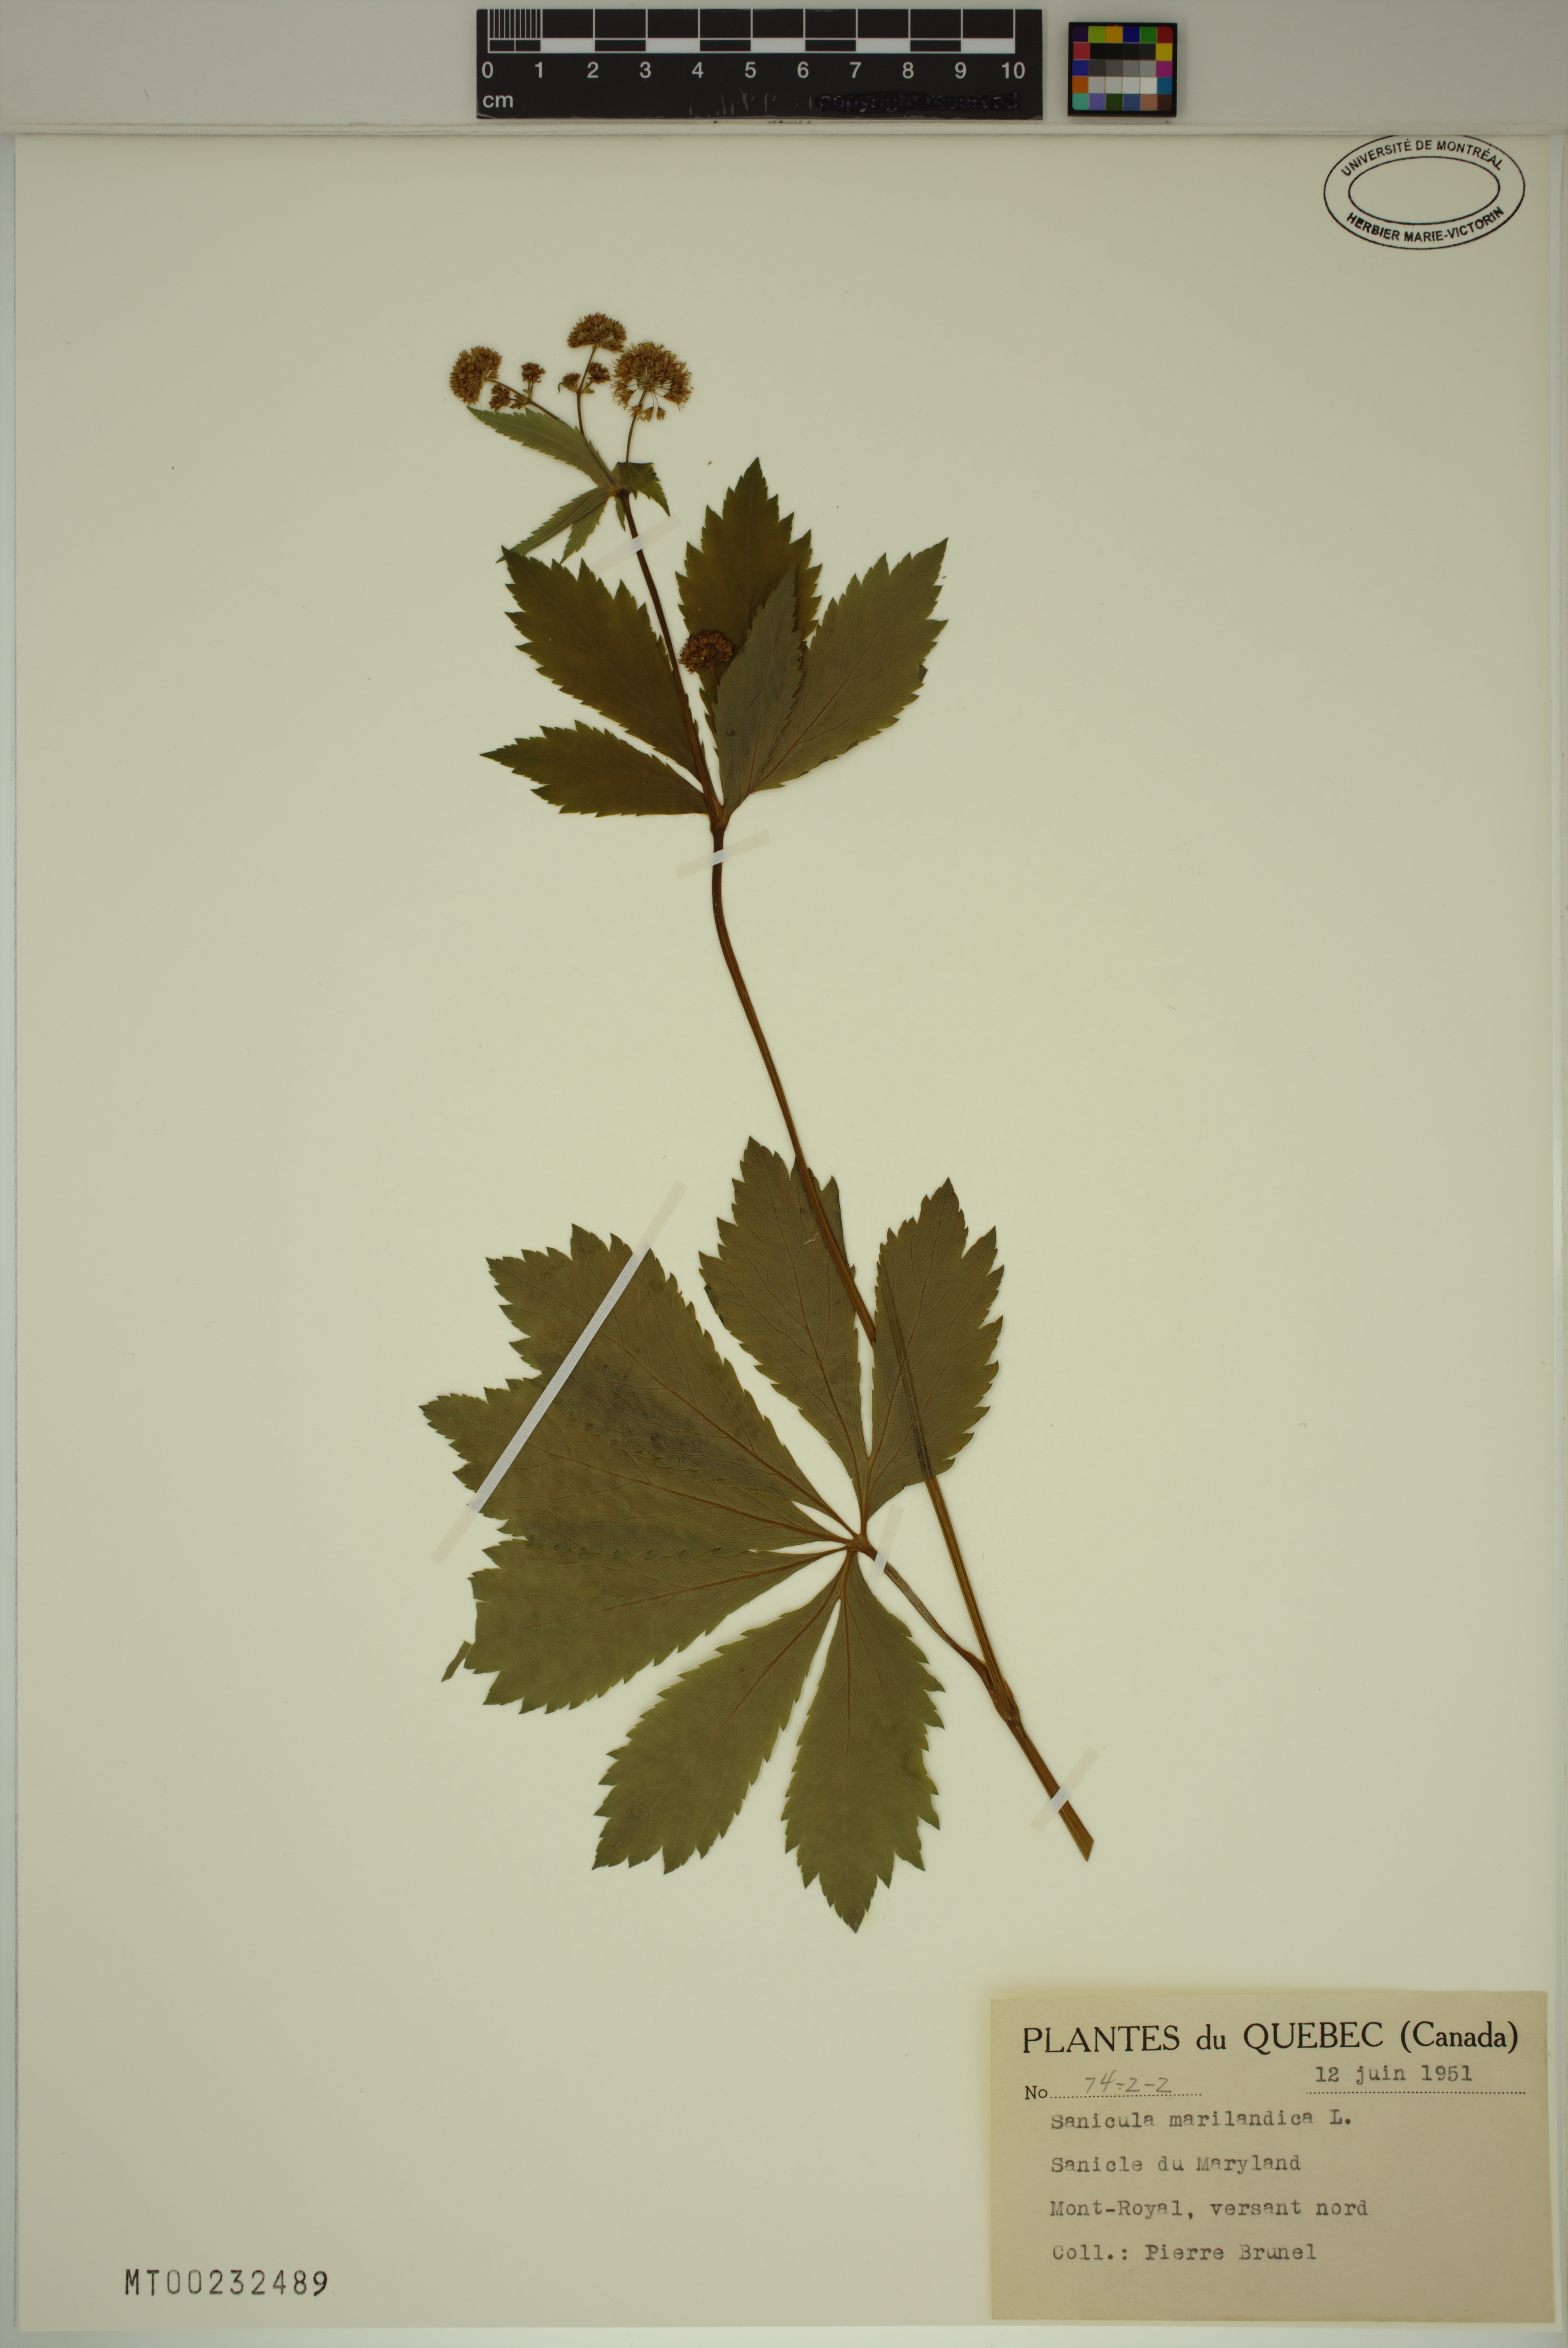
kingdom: Plantae
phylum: Tracheophyta
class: Magnoliopsida
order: Apiales
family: Apiaceae
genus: Sanicula
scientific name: Sanicula marilandica
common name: Black snakeroot
